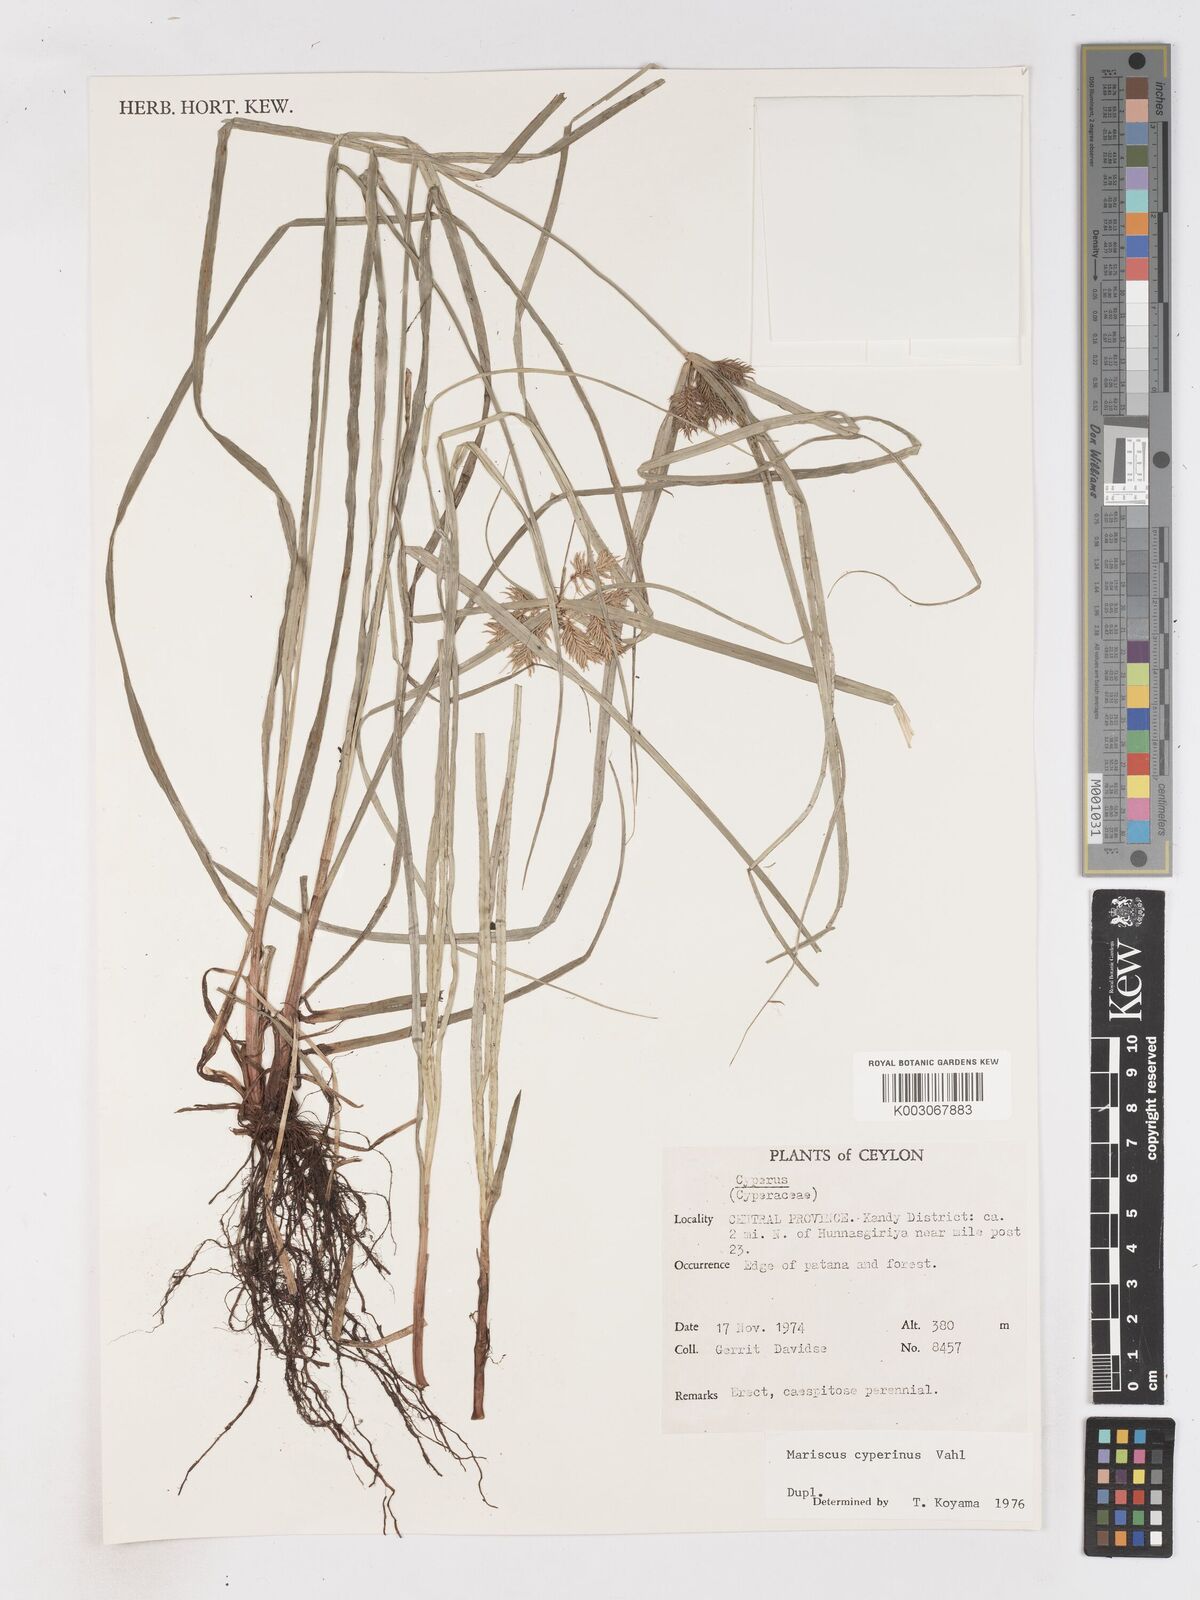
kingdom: Plantae
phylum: Tracheophyta
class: Liliopsida
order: Poales
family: Cyperaceae
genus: Cyperus
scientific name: Cyperus cyperinus
